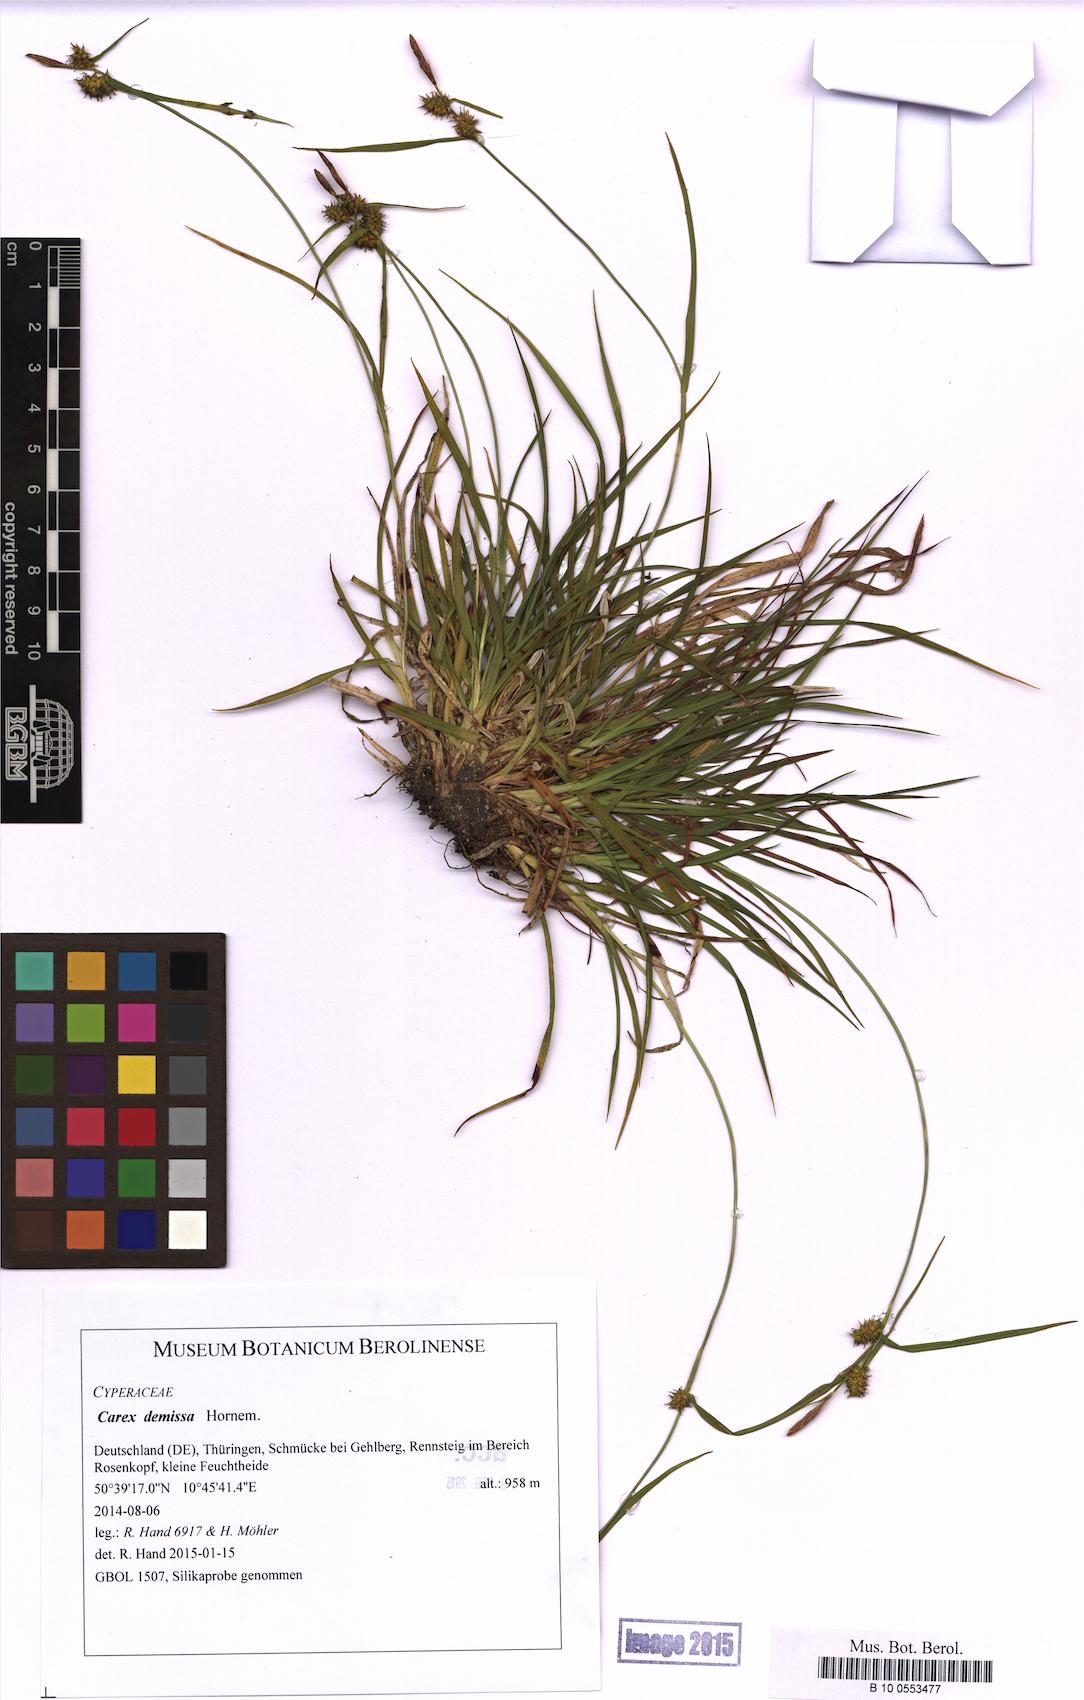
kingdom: Plantae
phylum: Tracheophyta
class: Liliopsida
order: Poales
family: Cyperaceae
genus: Carex
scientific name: Carex demissa
